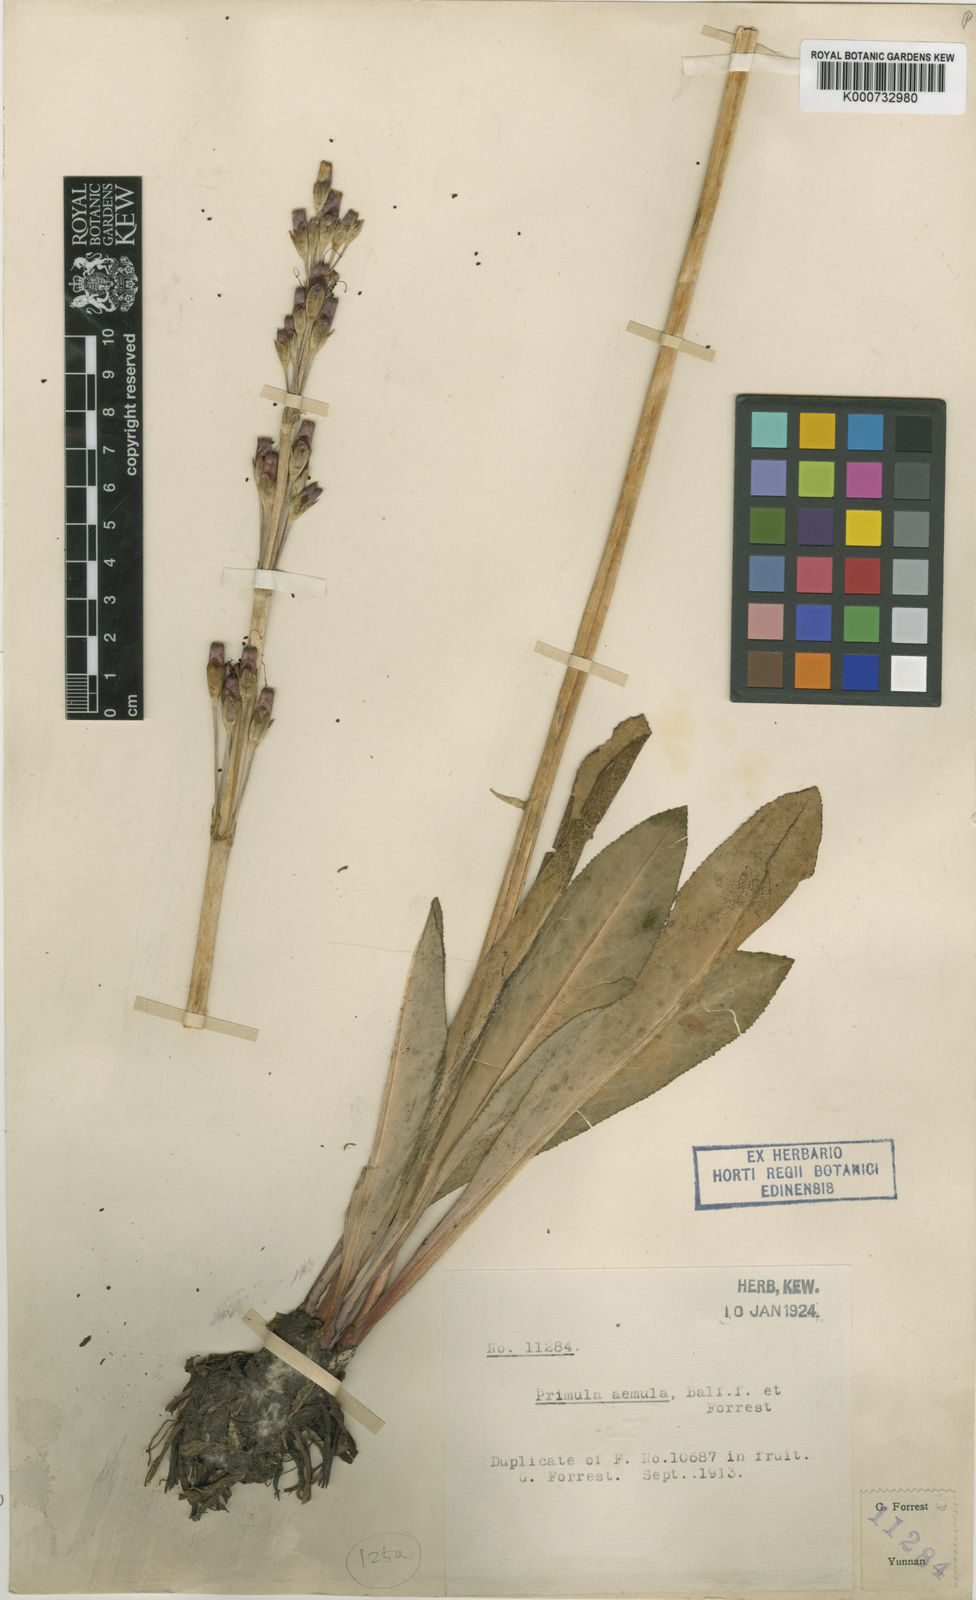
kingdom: Plantae
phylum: Tracheophyta
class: Magnoliopsida
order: Ericales
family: Primulaceae
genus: Primula
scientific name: Primula aemula
